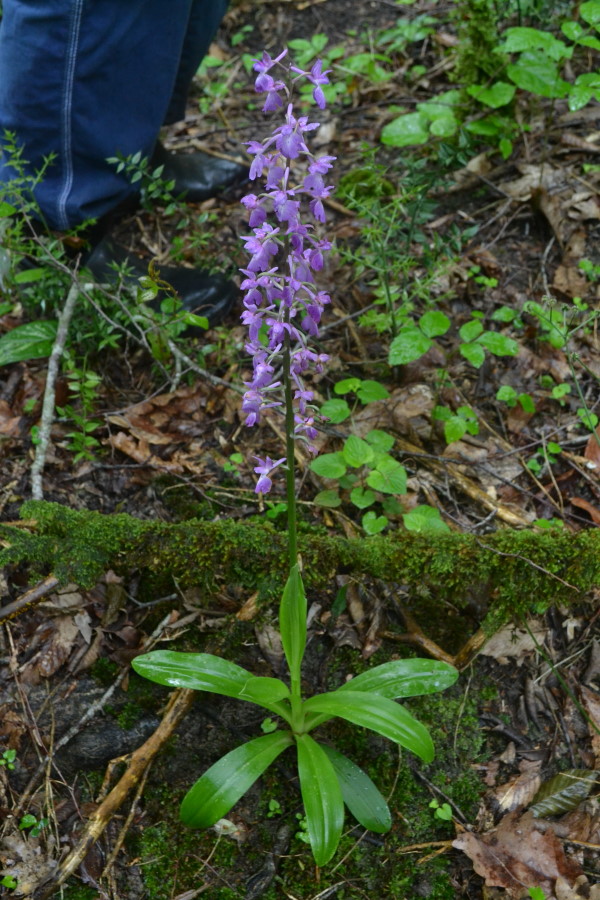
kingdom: Plantae
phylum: Tracheophyta
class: Liliopsida
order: Asparagales
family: Orchidaceae
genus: Orchis
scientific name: Orchis mascula
